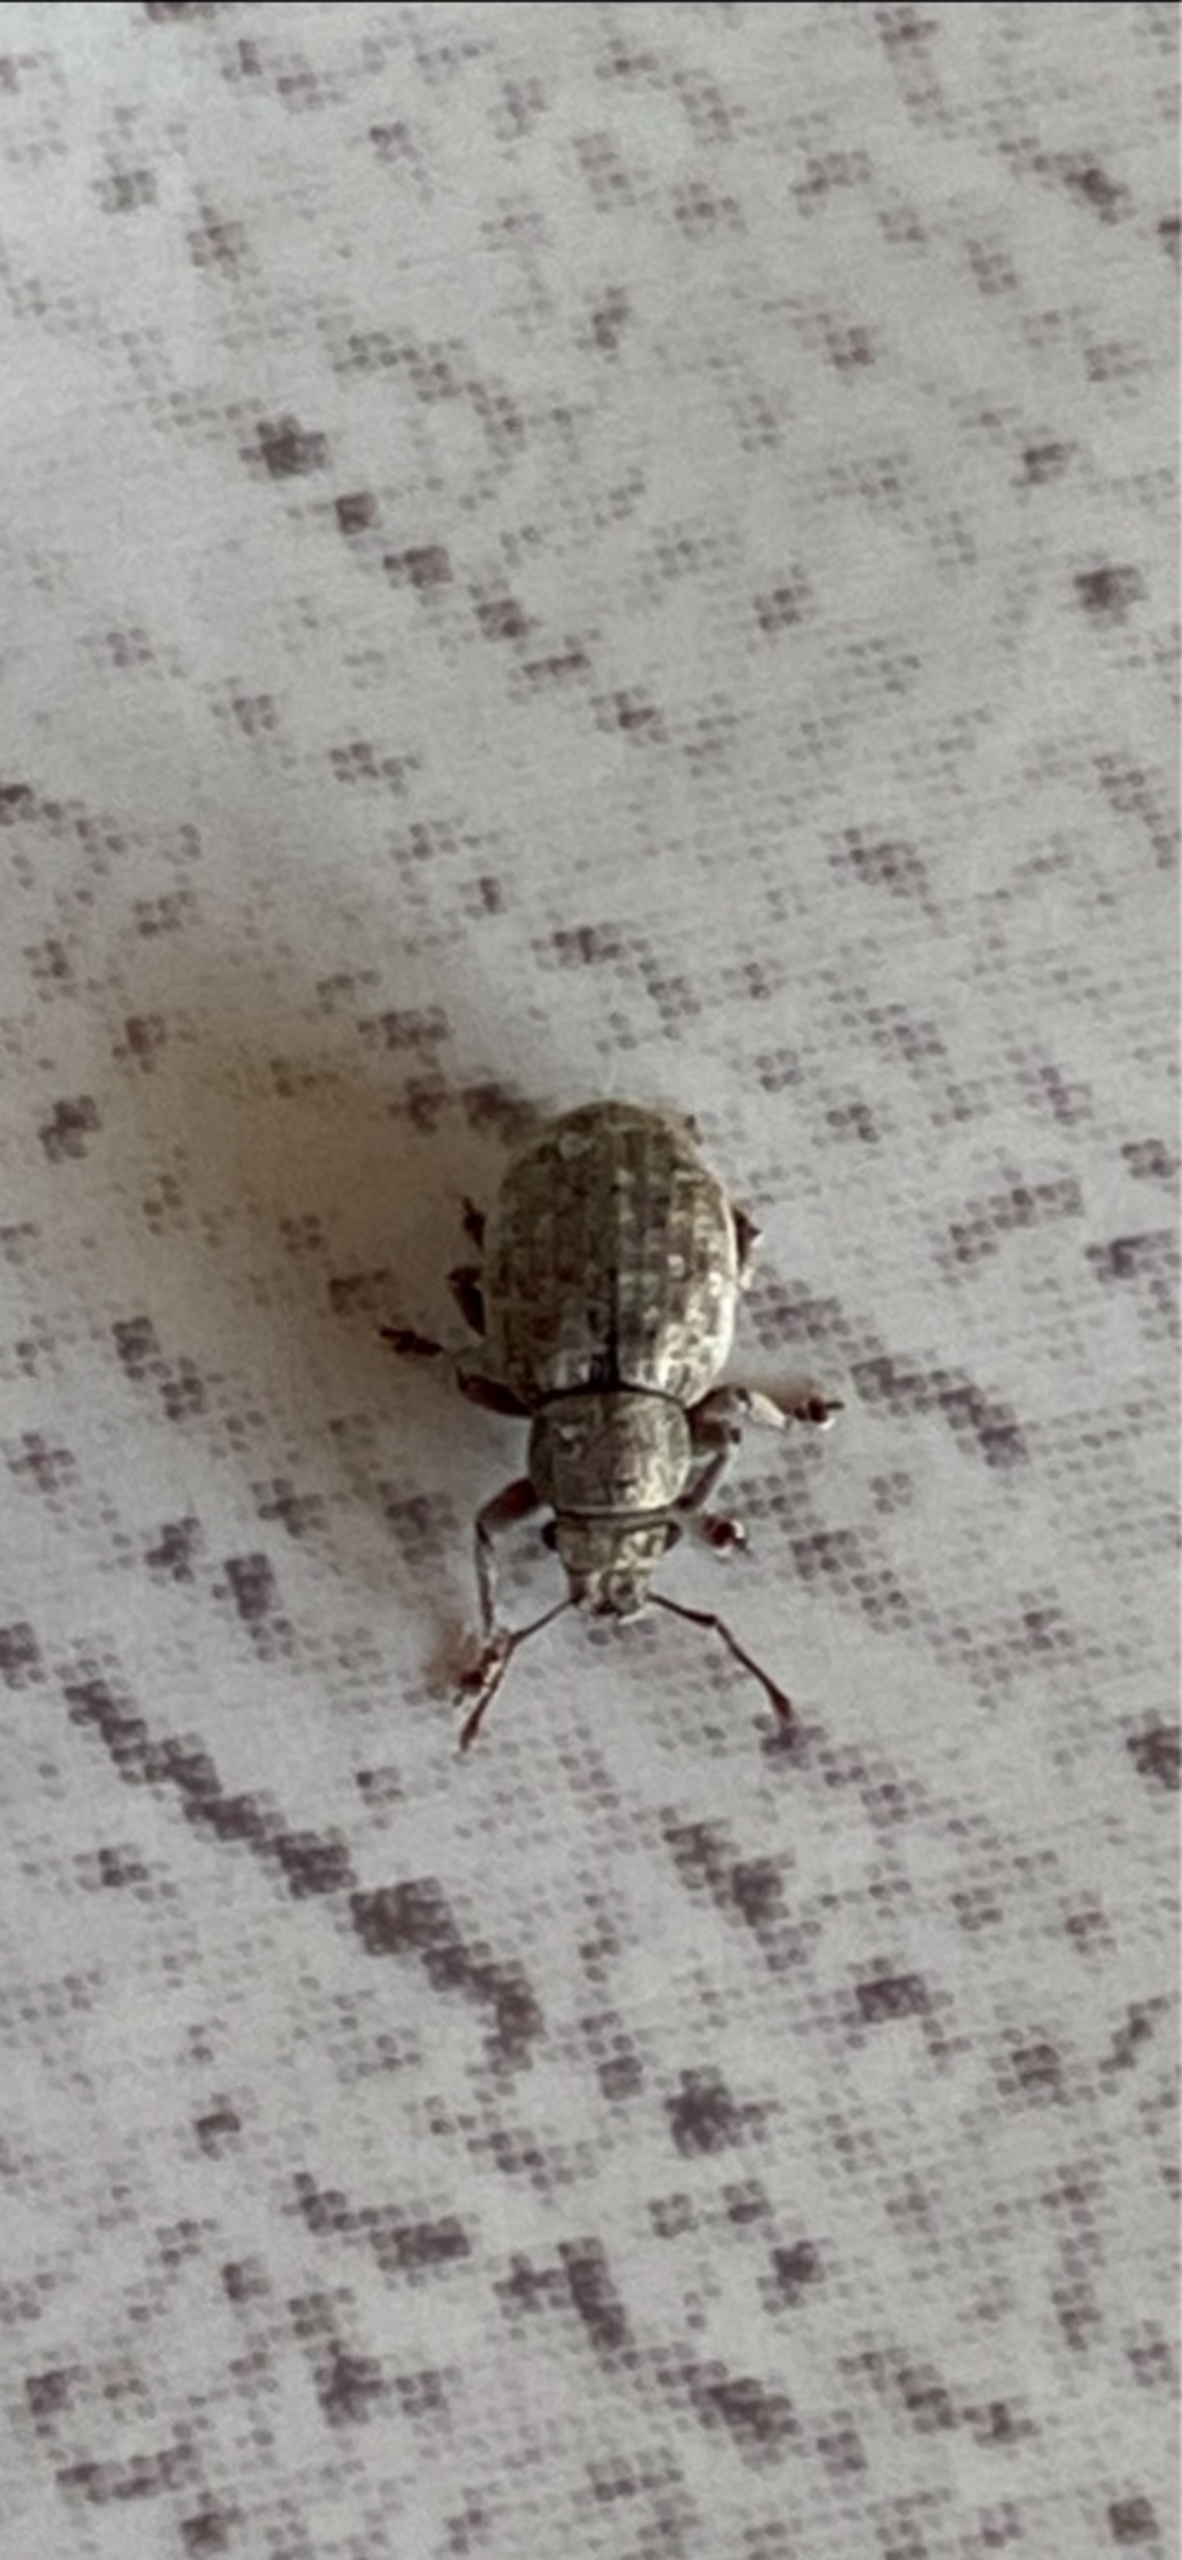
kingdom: Animalia
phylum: Arthropoda
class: Insecta
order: Coleoptera
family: Curculionidae
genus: Strophosoma
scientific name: Strophosoma melanogrammum
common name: Stribet gråsnude
